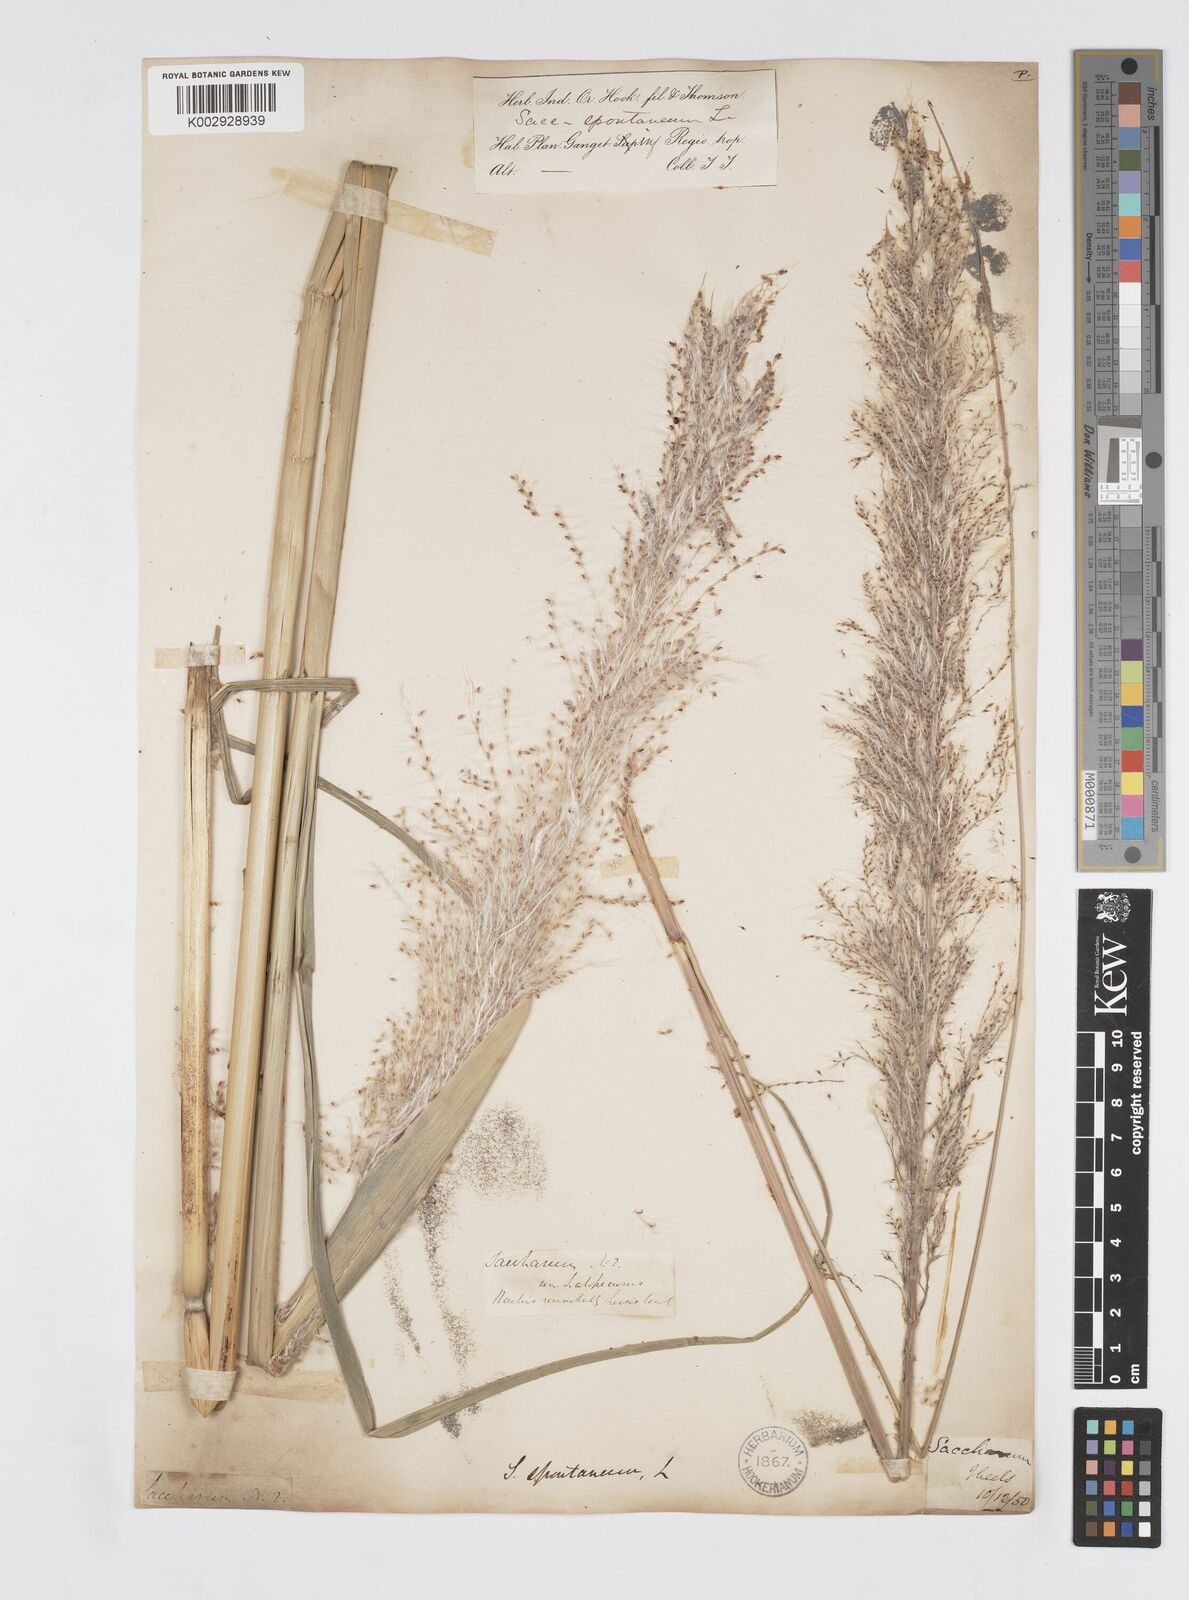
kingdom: Plantae
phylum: Tracheophyta
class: Liliopsida
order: Poales
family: Poaceae
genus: Saccharum
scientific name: Saccharum spontaneum
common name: Wild sugarcane
